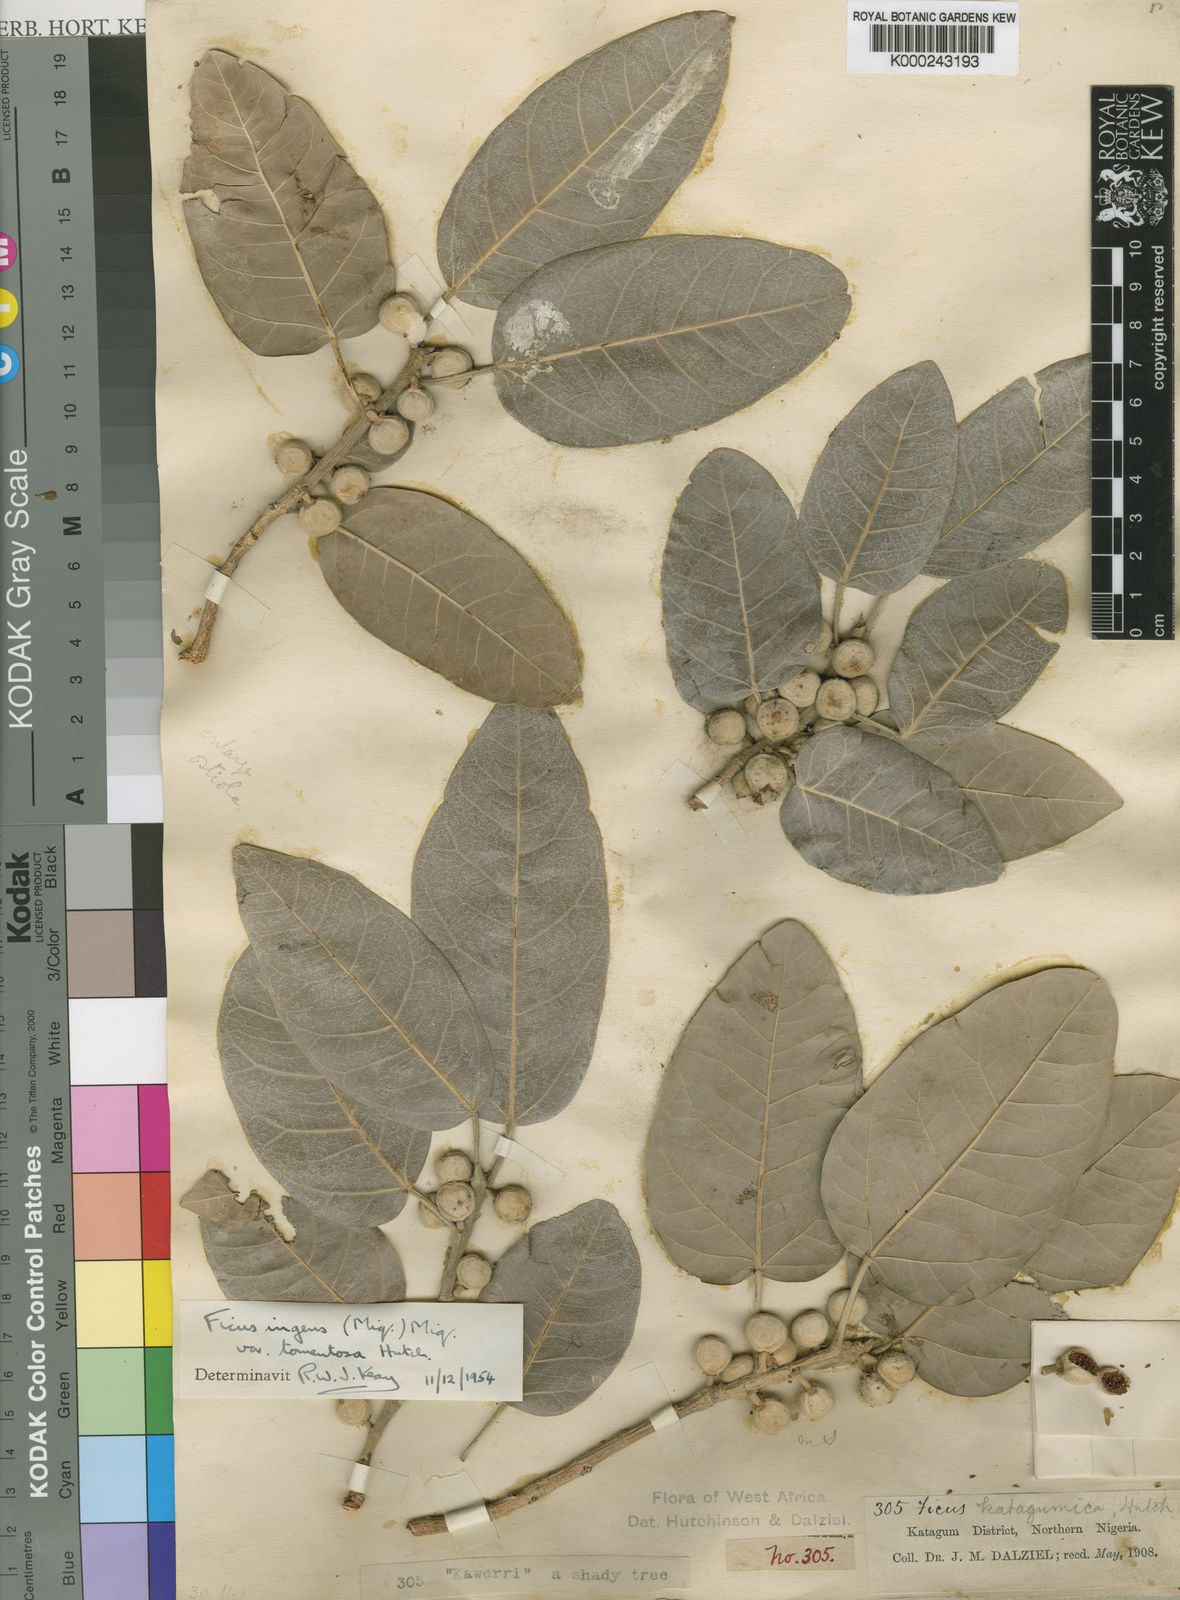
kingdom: Plantae
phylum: Tracheophyta
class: Magnoliopsida
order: Rosales
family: Moraceae
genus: Ficus
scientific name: Ficus ingens
